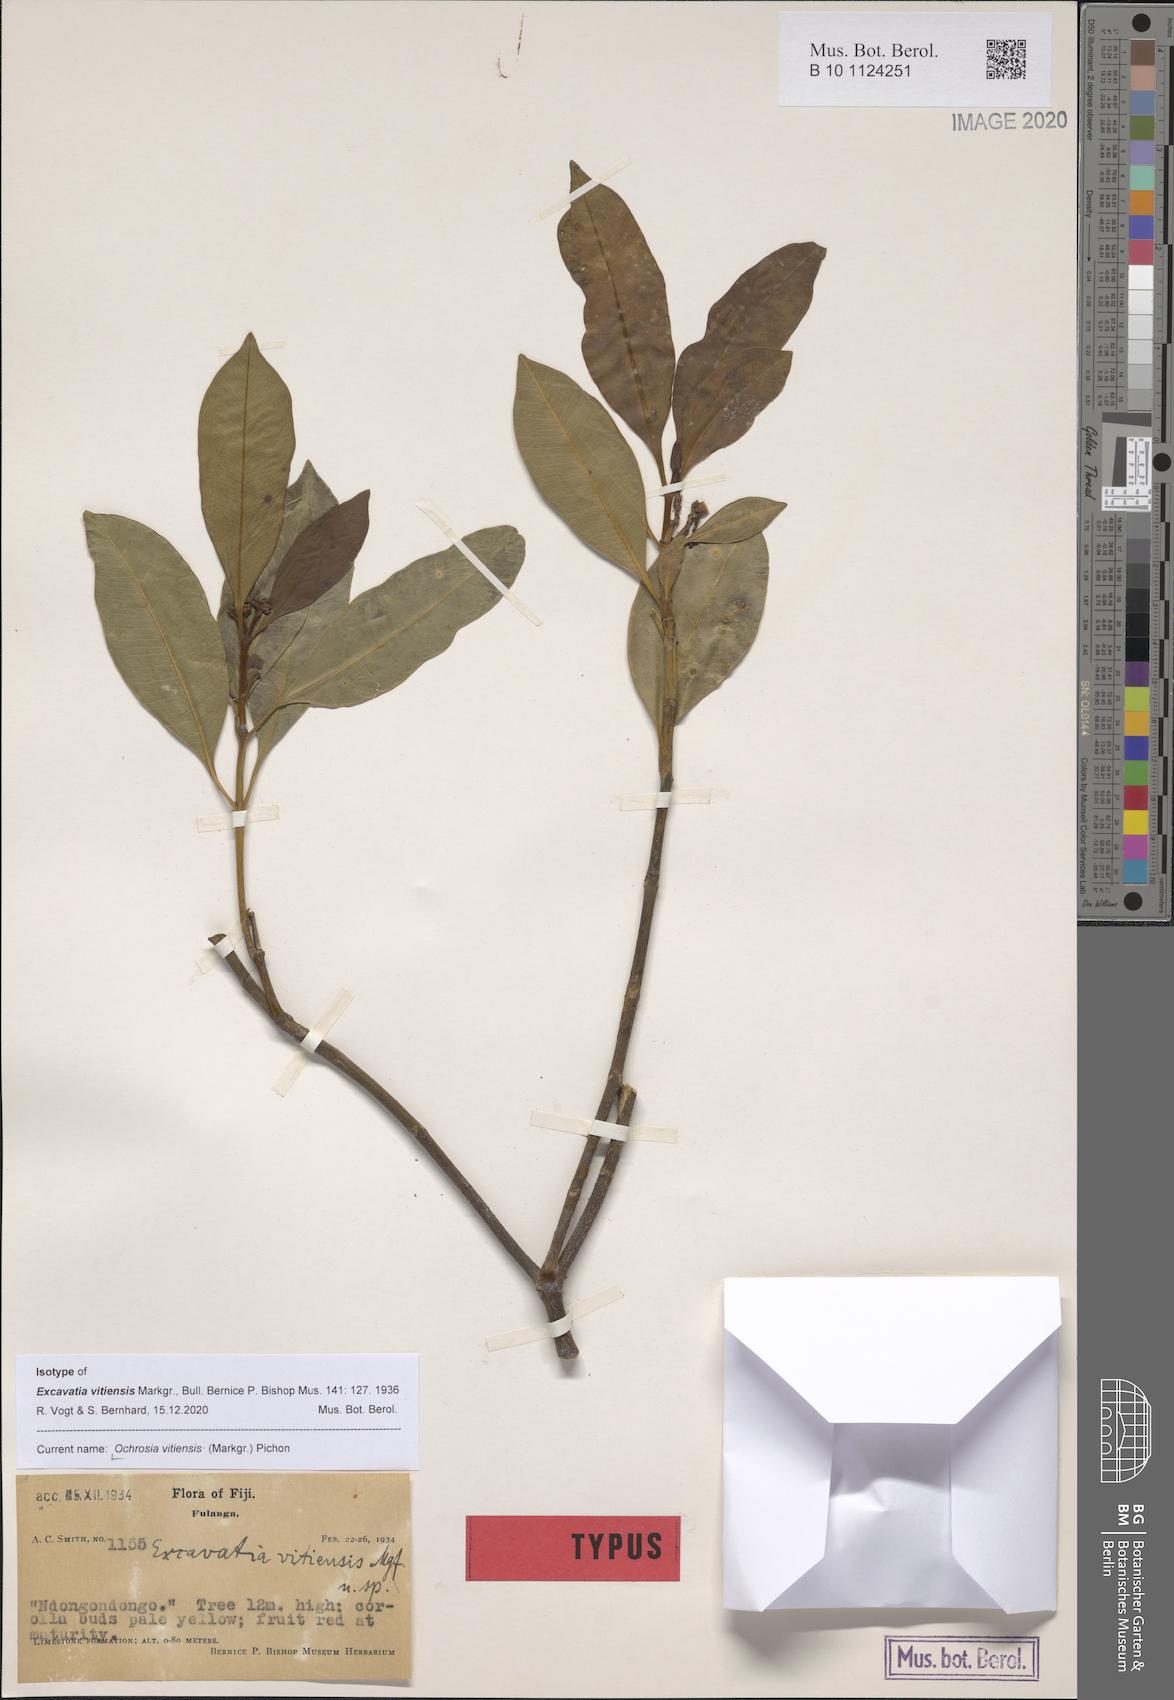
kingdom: Plantae
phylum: Tracheophyta
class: Magnoliopsida
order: Gentianales
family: Apocynaceae
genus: Ochrosia
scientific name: Ochrosia vitiensis
